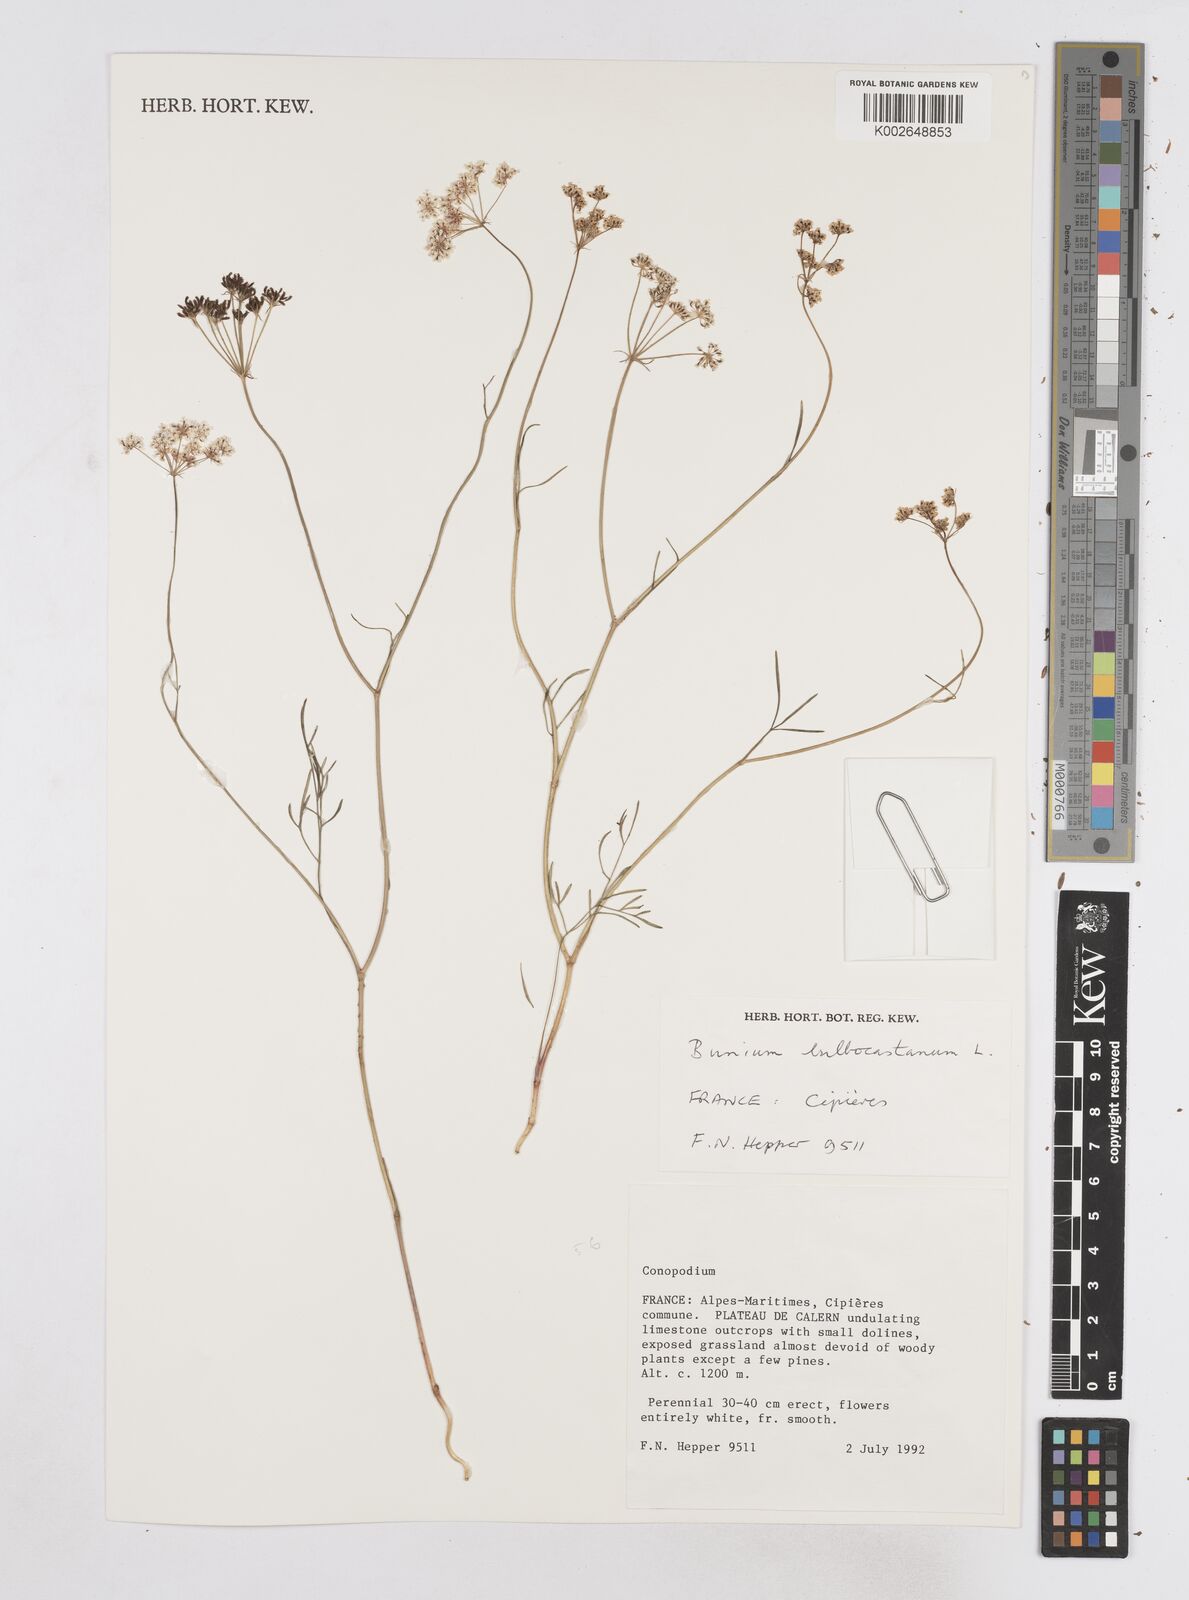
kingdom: Plantae
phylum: Tracheophyta
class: Magnoliopsida
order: Apiales
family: Apiaceae
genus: Bunium
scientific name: Bunium bulbocastanum
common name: Great pignut
